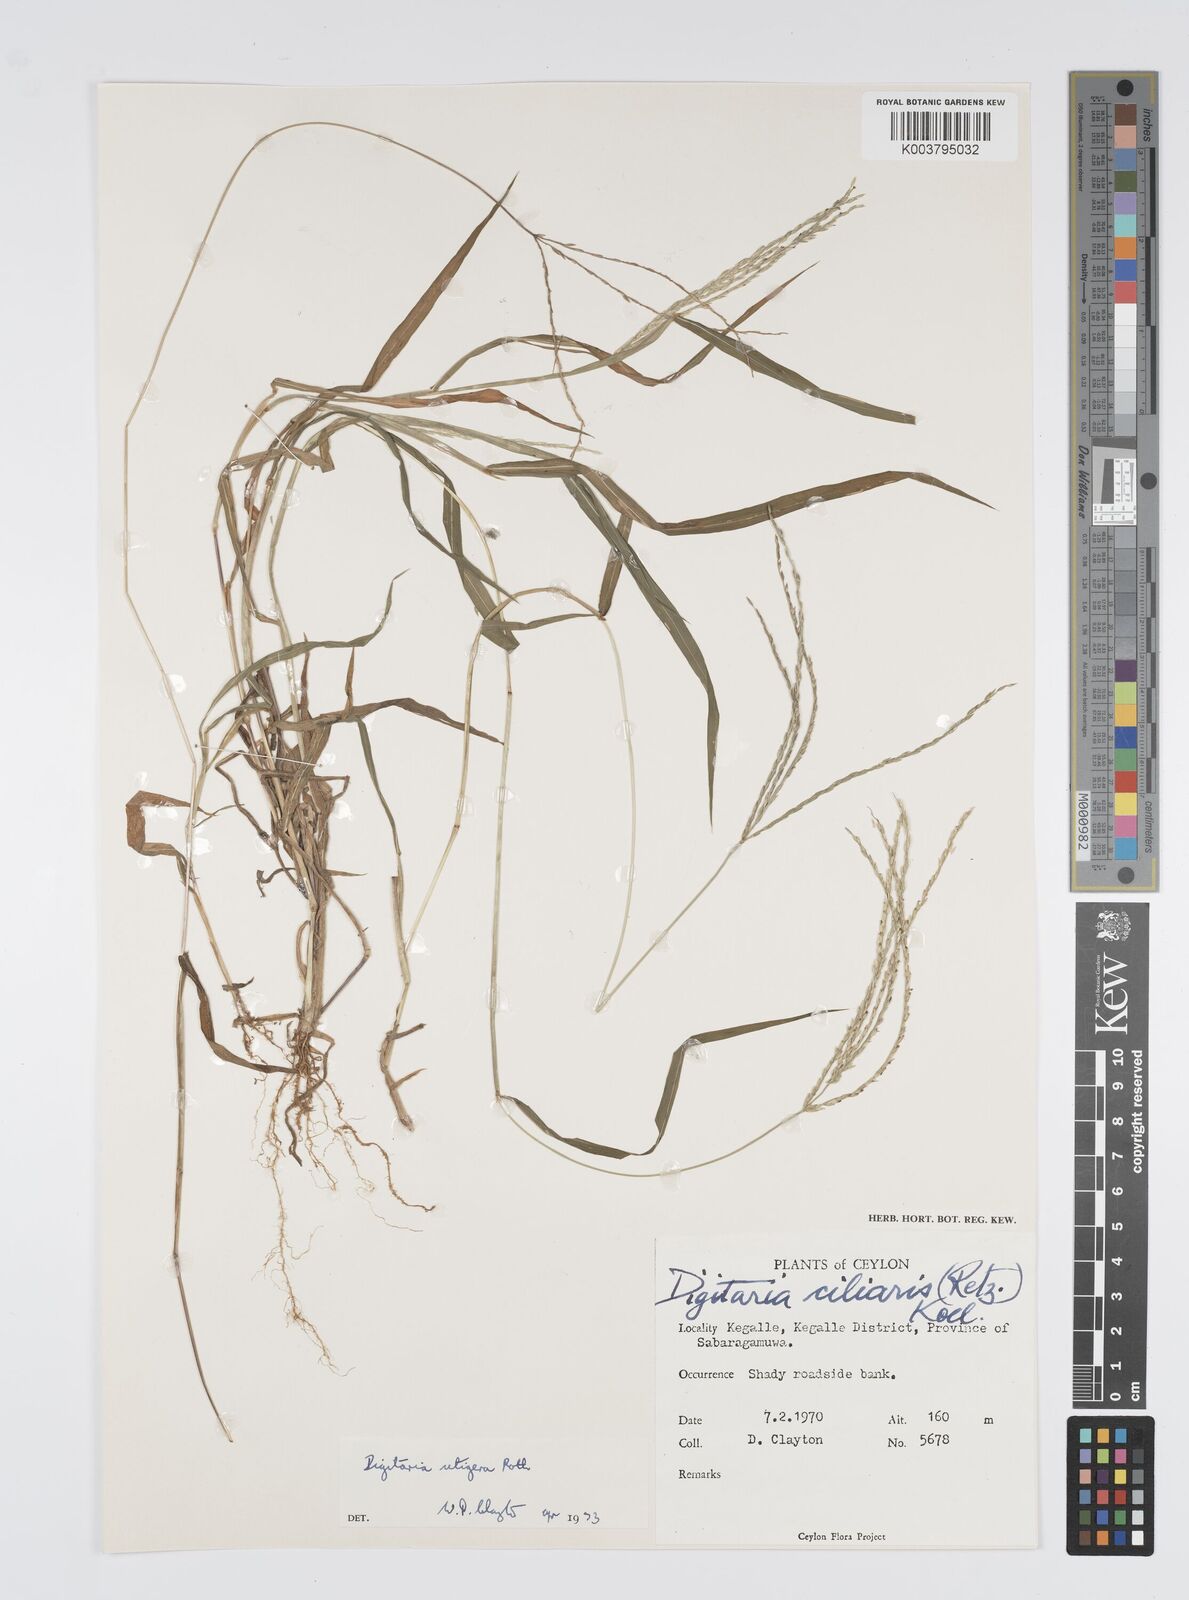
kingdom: Plantae
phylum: Tracheophyta
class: Liliopsida
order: Poales
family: Poaceae
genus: Digitaria
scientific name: Digitaria setigera
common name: East indian crabgrass
